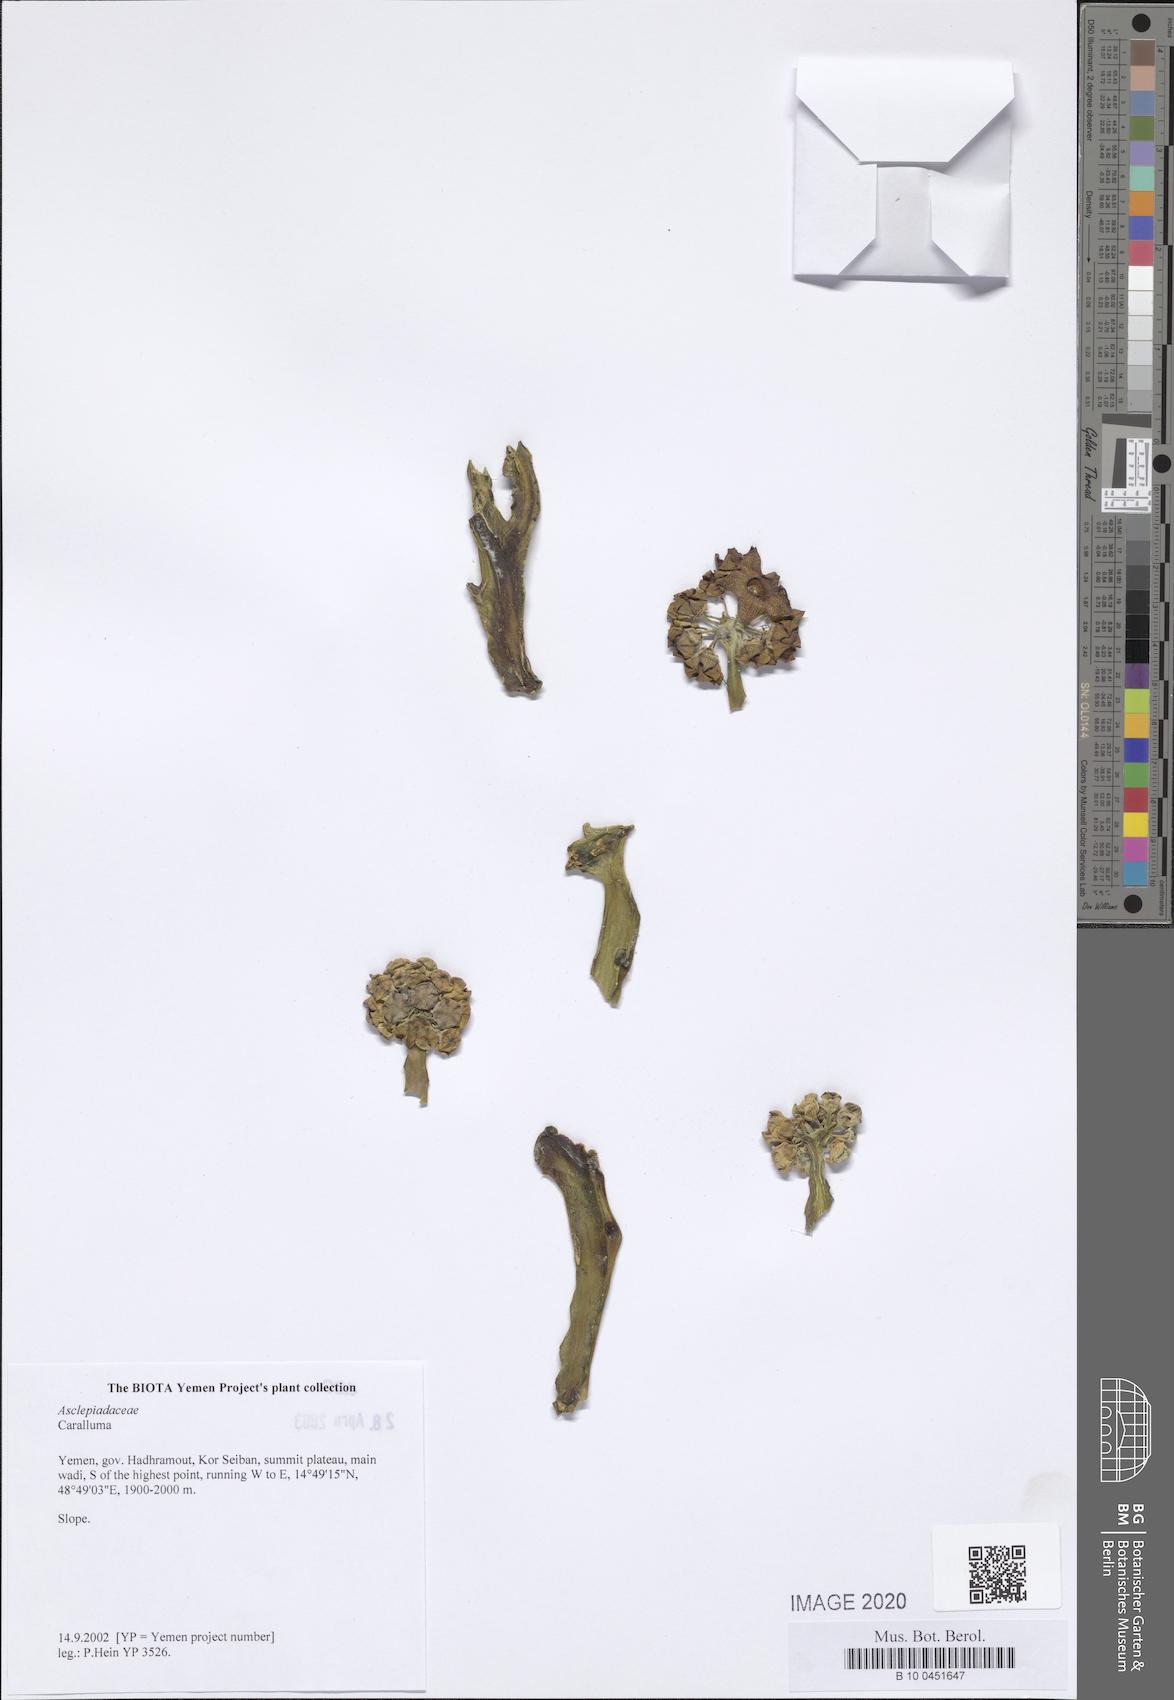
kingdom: Plantae
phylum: Tracheophyta
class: Magnoliopsida
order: Gentianales
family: Apocynaceae
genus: Ceropegia
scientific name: Ceropegia adenensis
